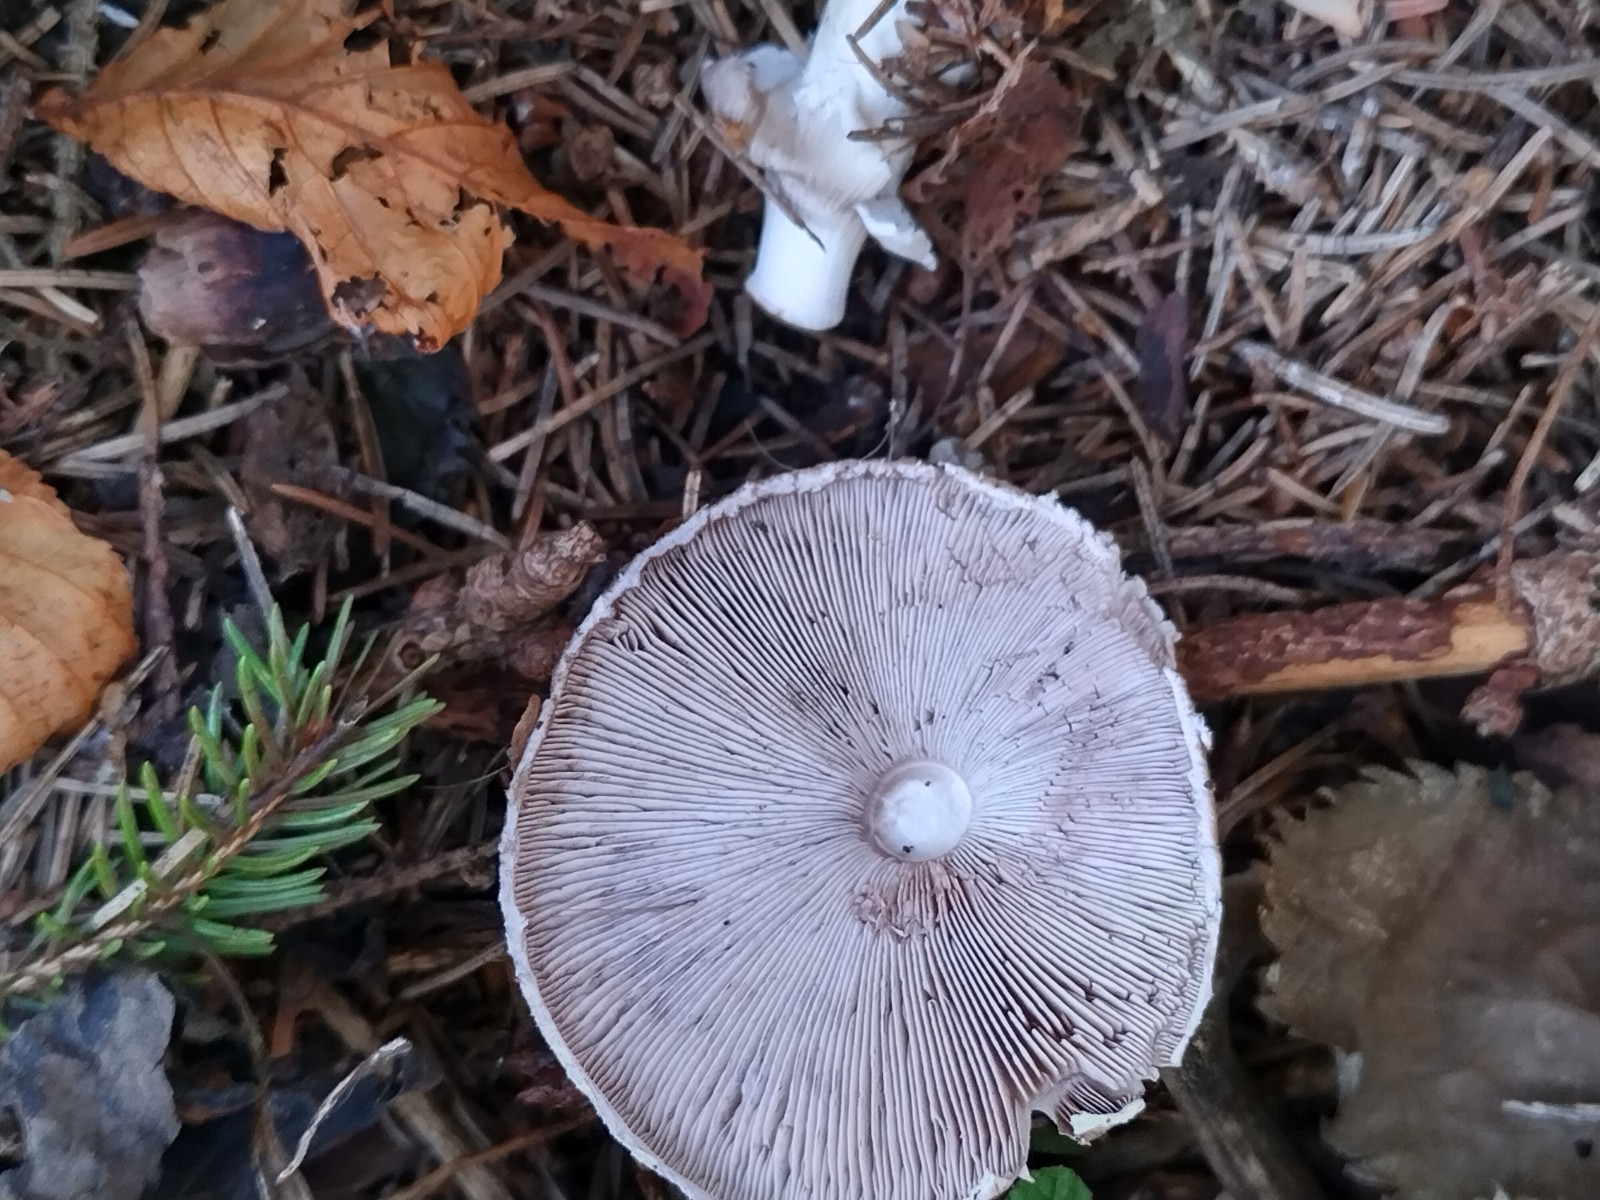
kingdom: Fungi
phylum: Basidiomycota
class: Agaricomycetes
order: Agaricales
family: Agaricaceae
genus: Agaricus
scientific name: Agaricus impudicus
